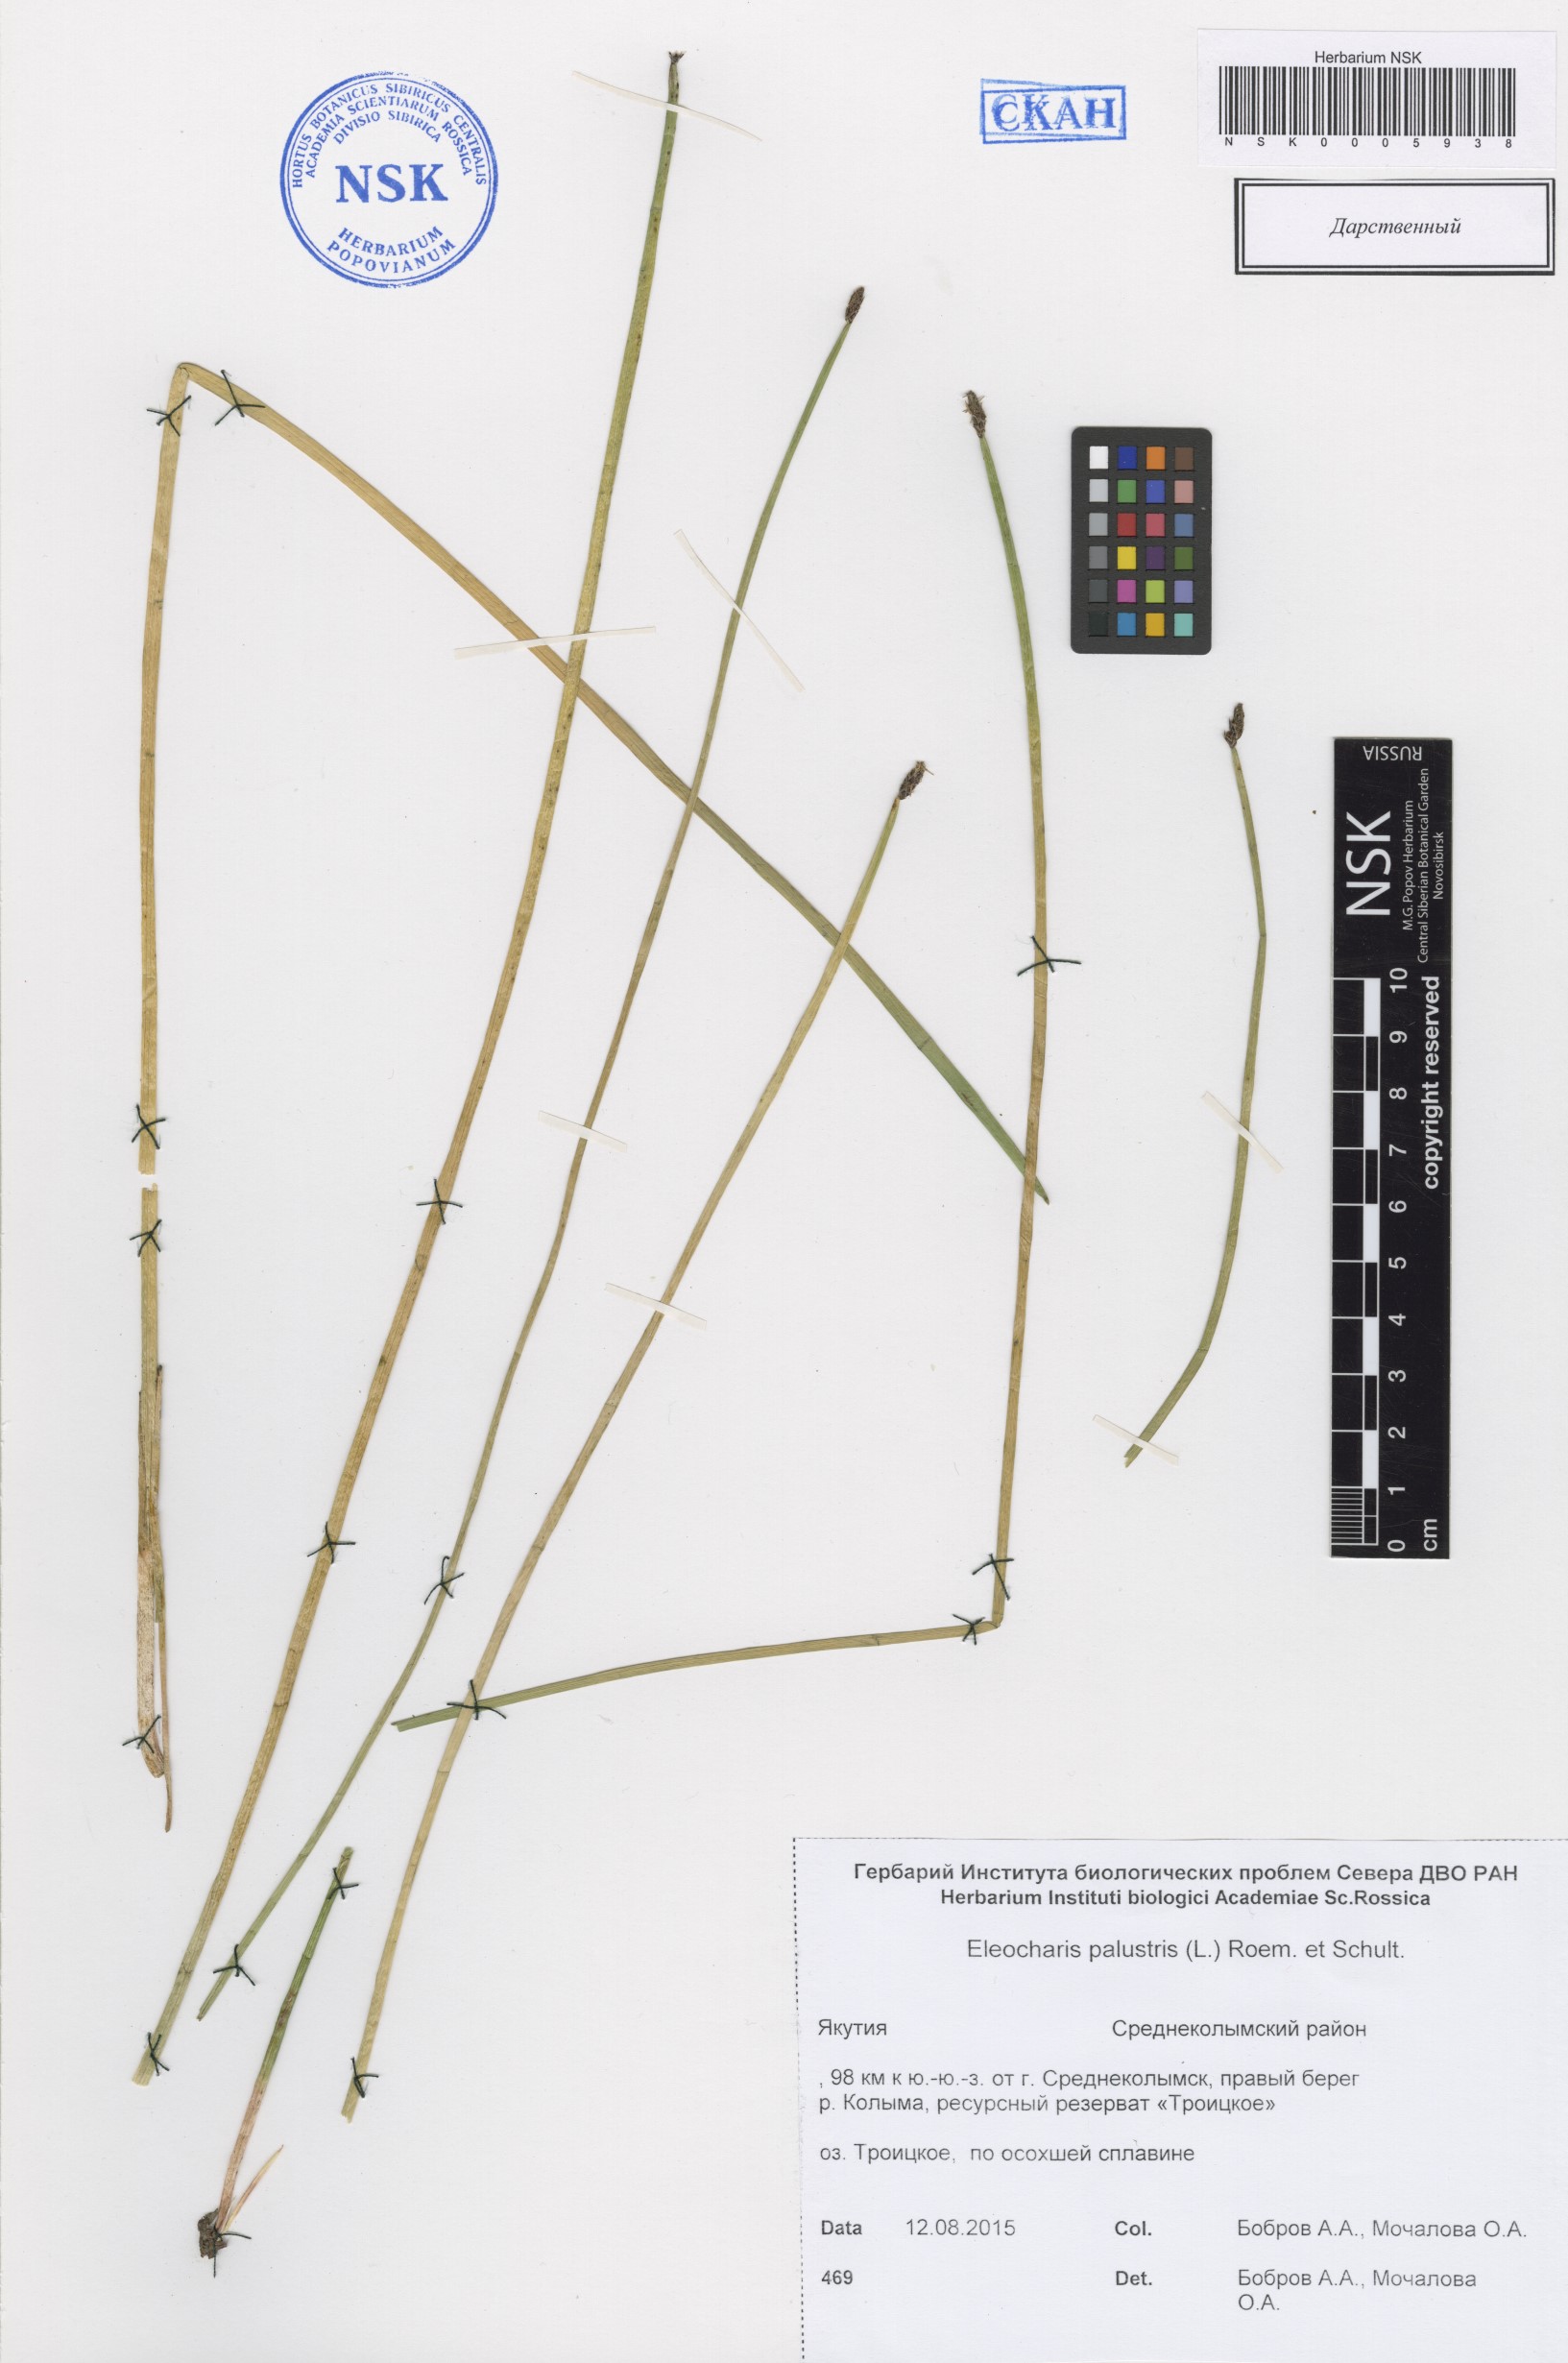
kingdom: Plantae
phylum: Tracheophyta
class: Liliopsida
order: Poales
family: Cyperaceae
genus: Eleocharis
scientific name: Eleocharis palustris
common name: Common spike-rush
